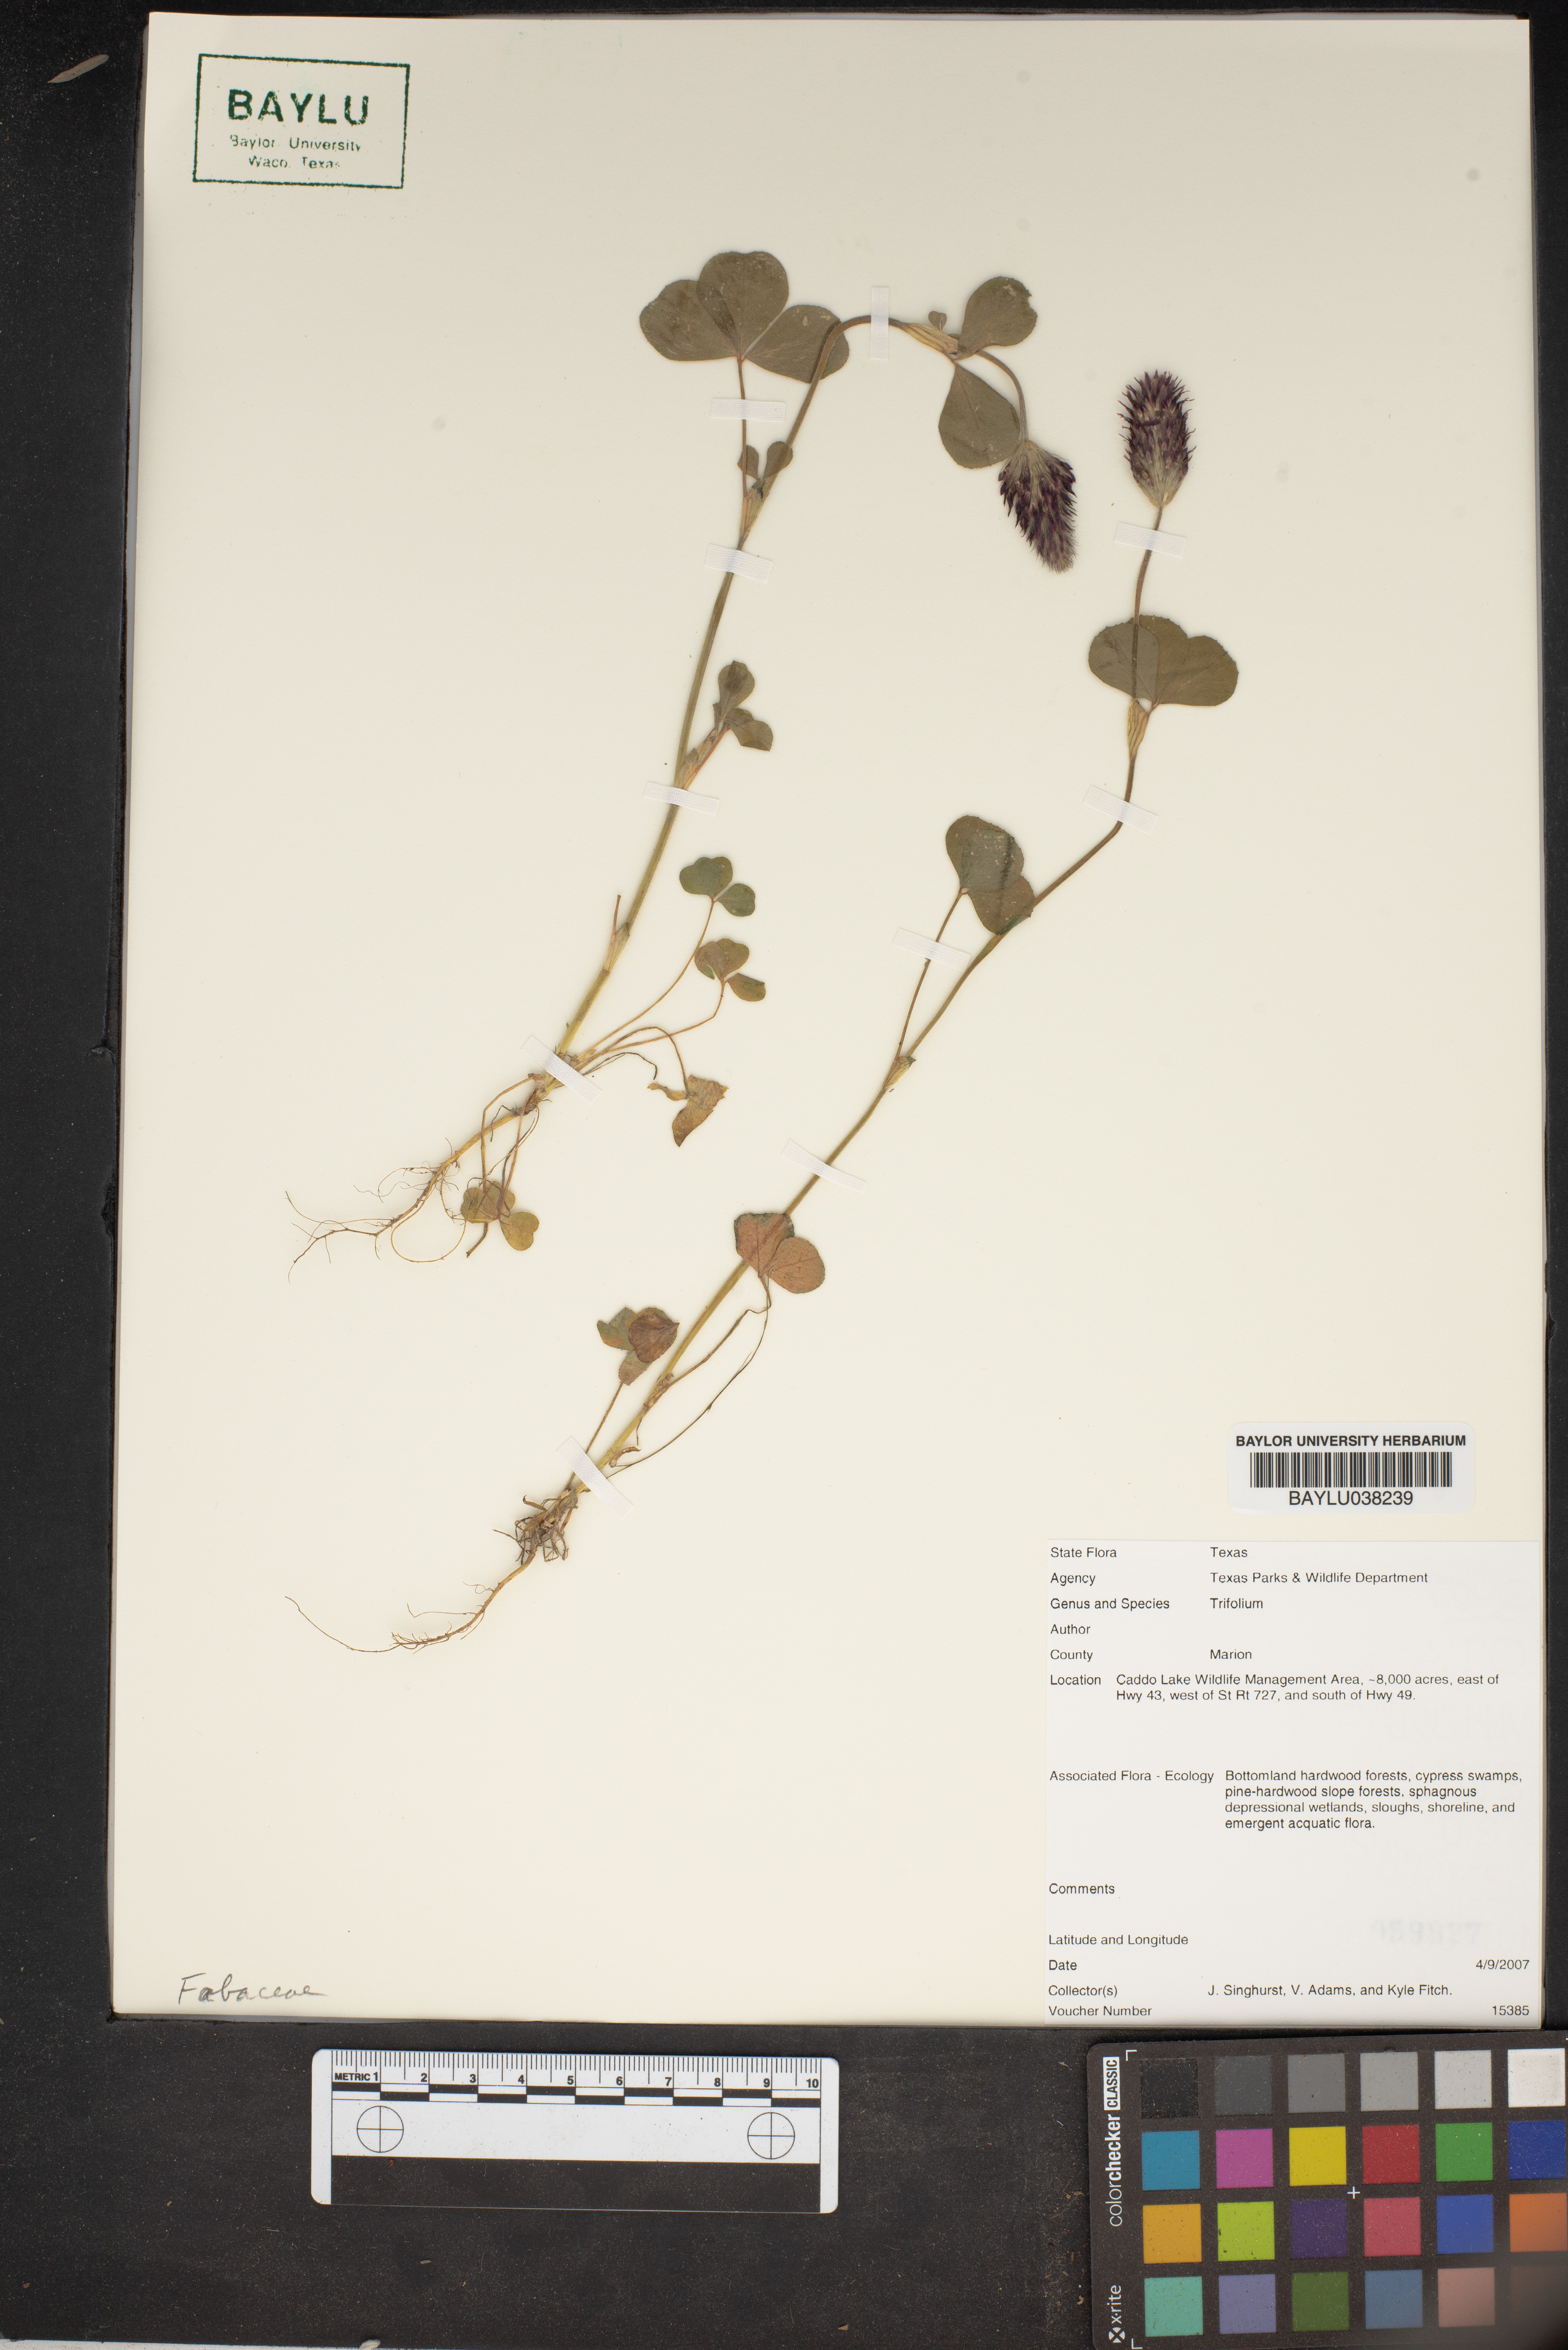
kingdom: Plantae
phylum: Tracheophyta
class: Magnoliopsida
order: Fabales
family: Fabaceae
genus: Trifolium
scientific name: Trifolium
